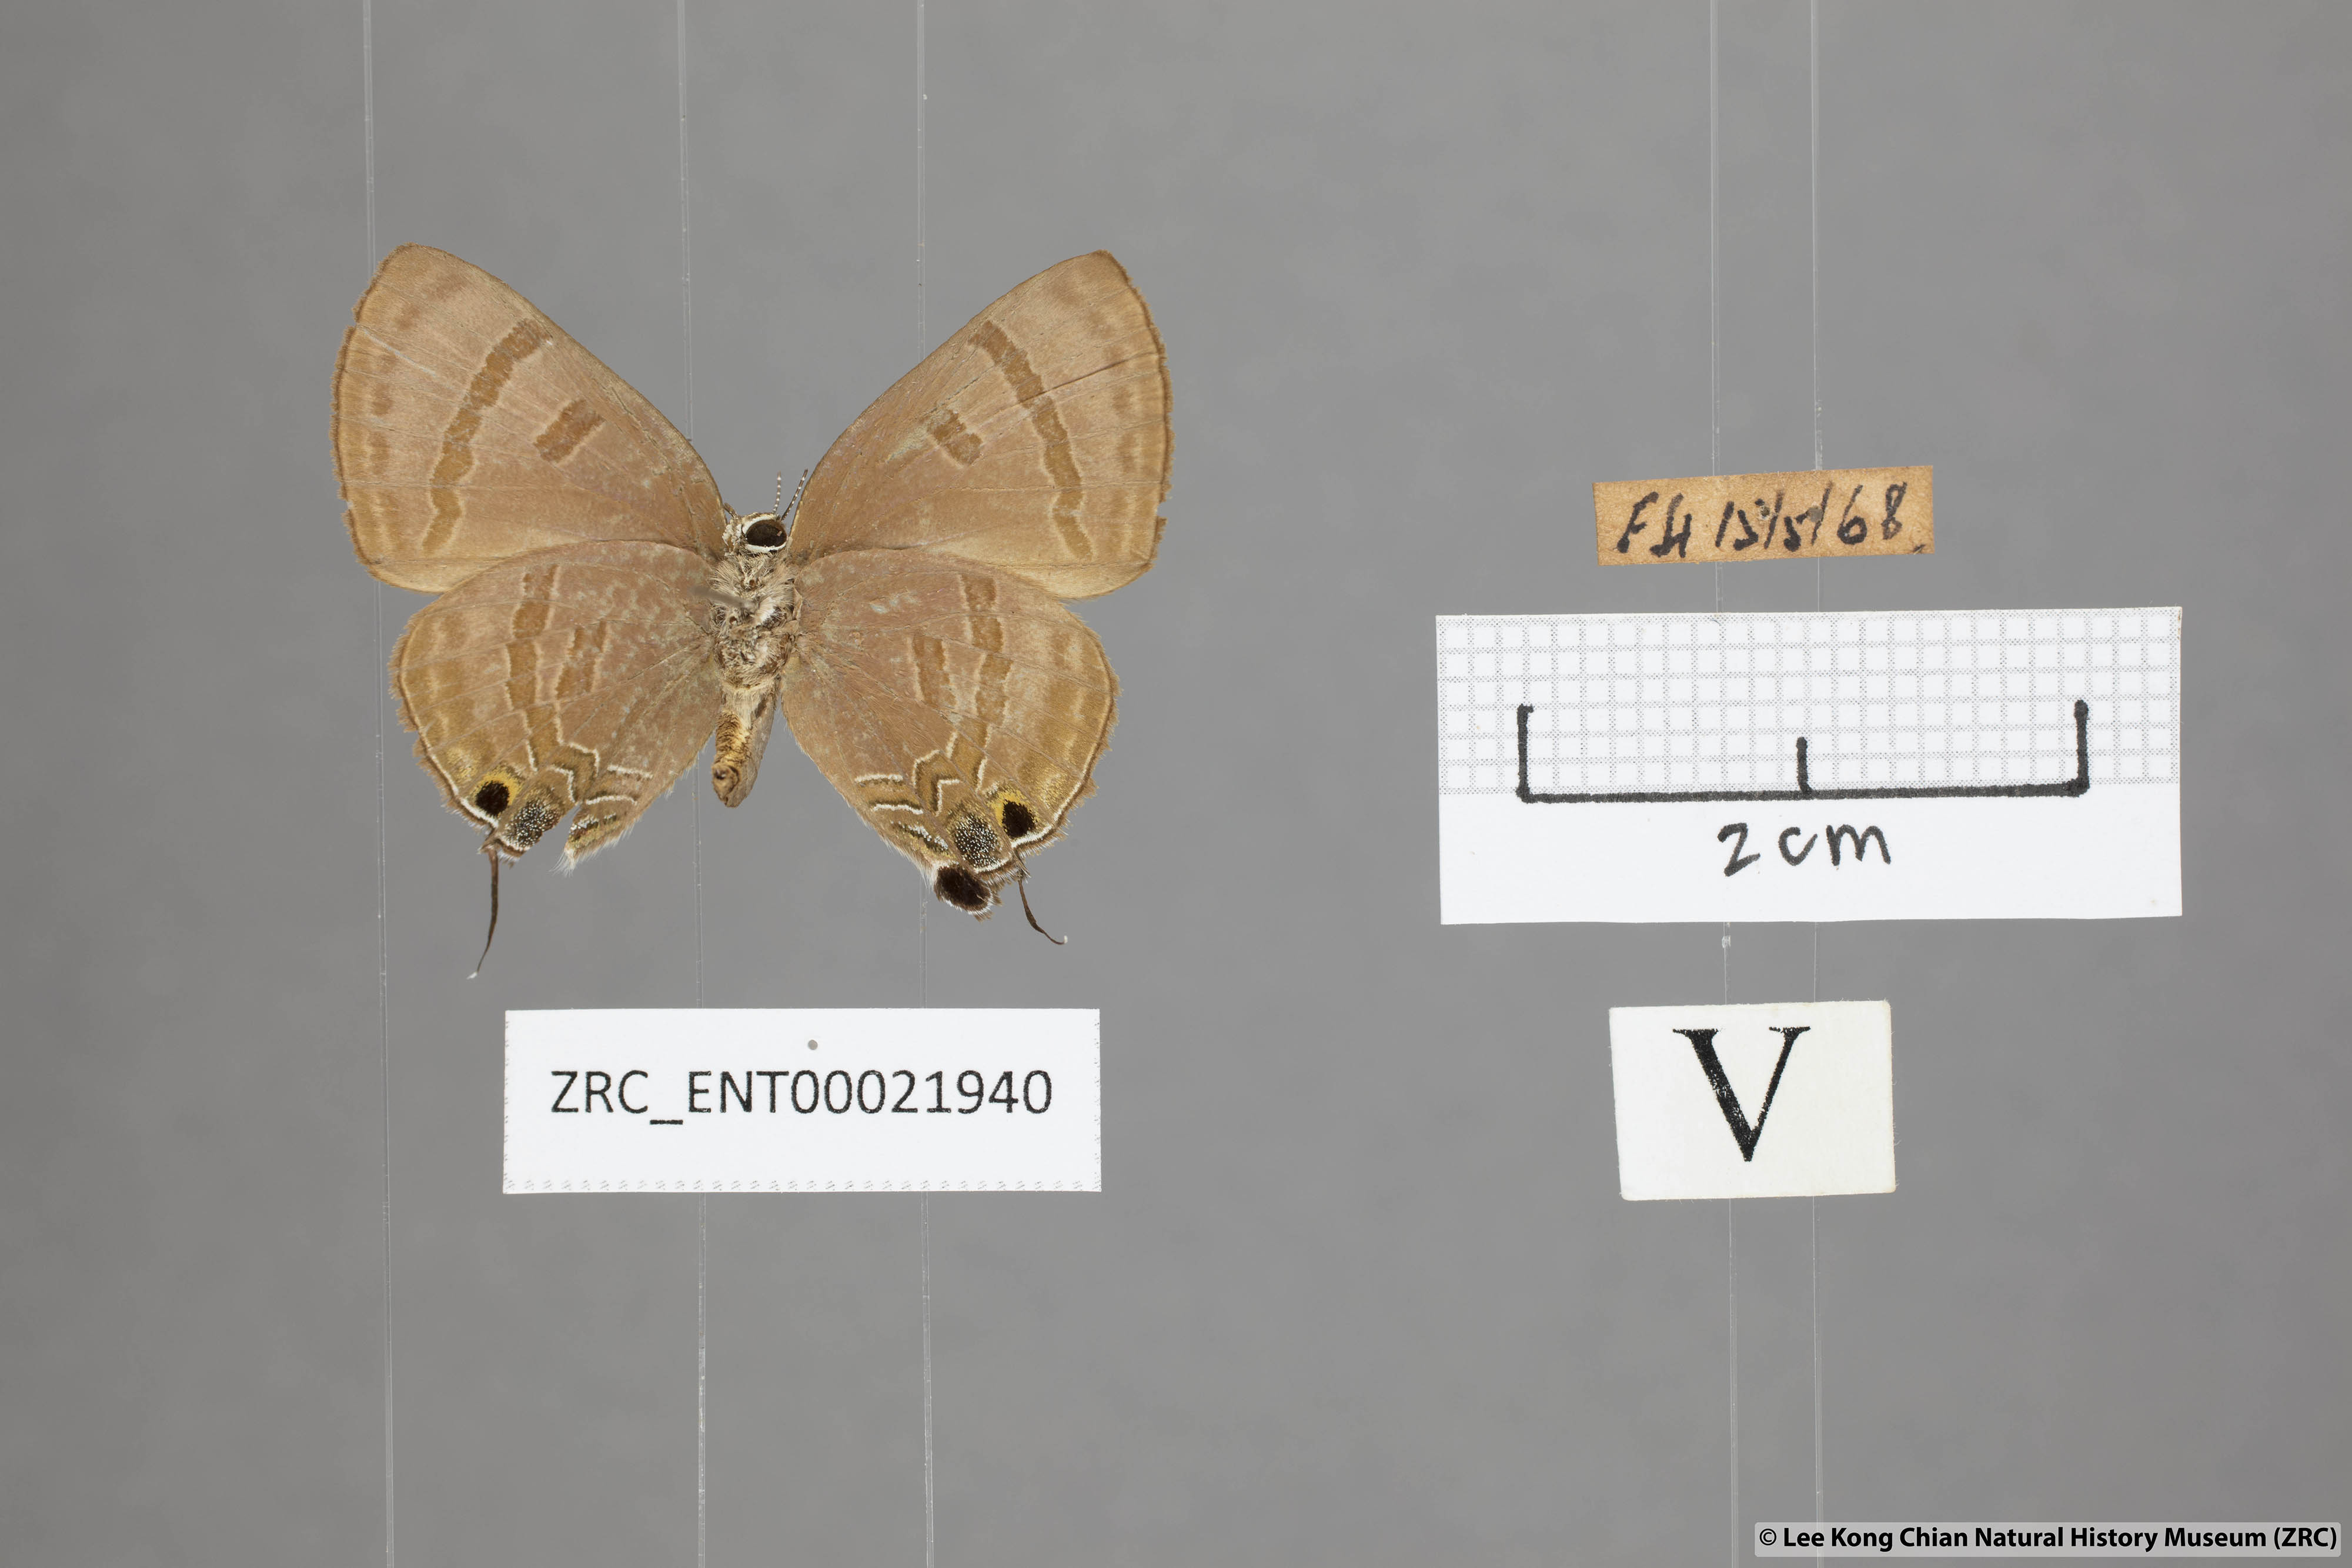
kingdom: Animalia
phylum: Arthropoda
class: Insecta
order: Lepidoptera
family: Lycaenidae
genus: Rapala
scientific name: Rapala varuna
